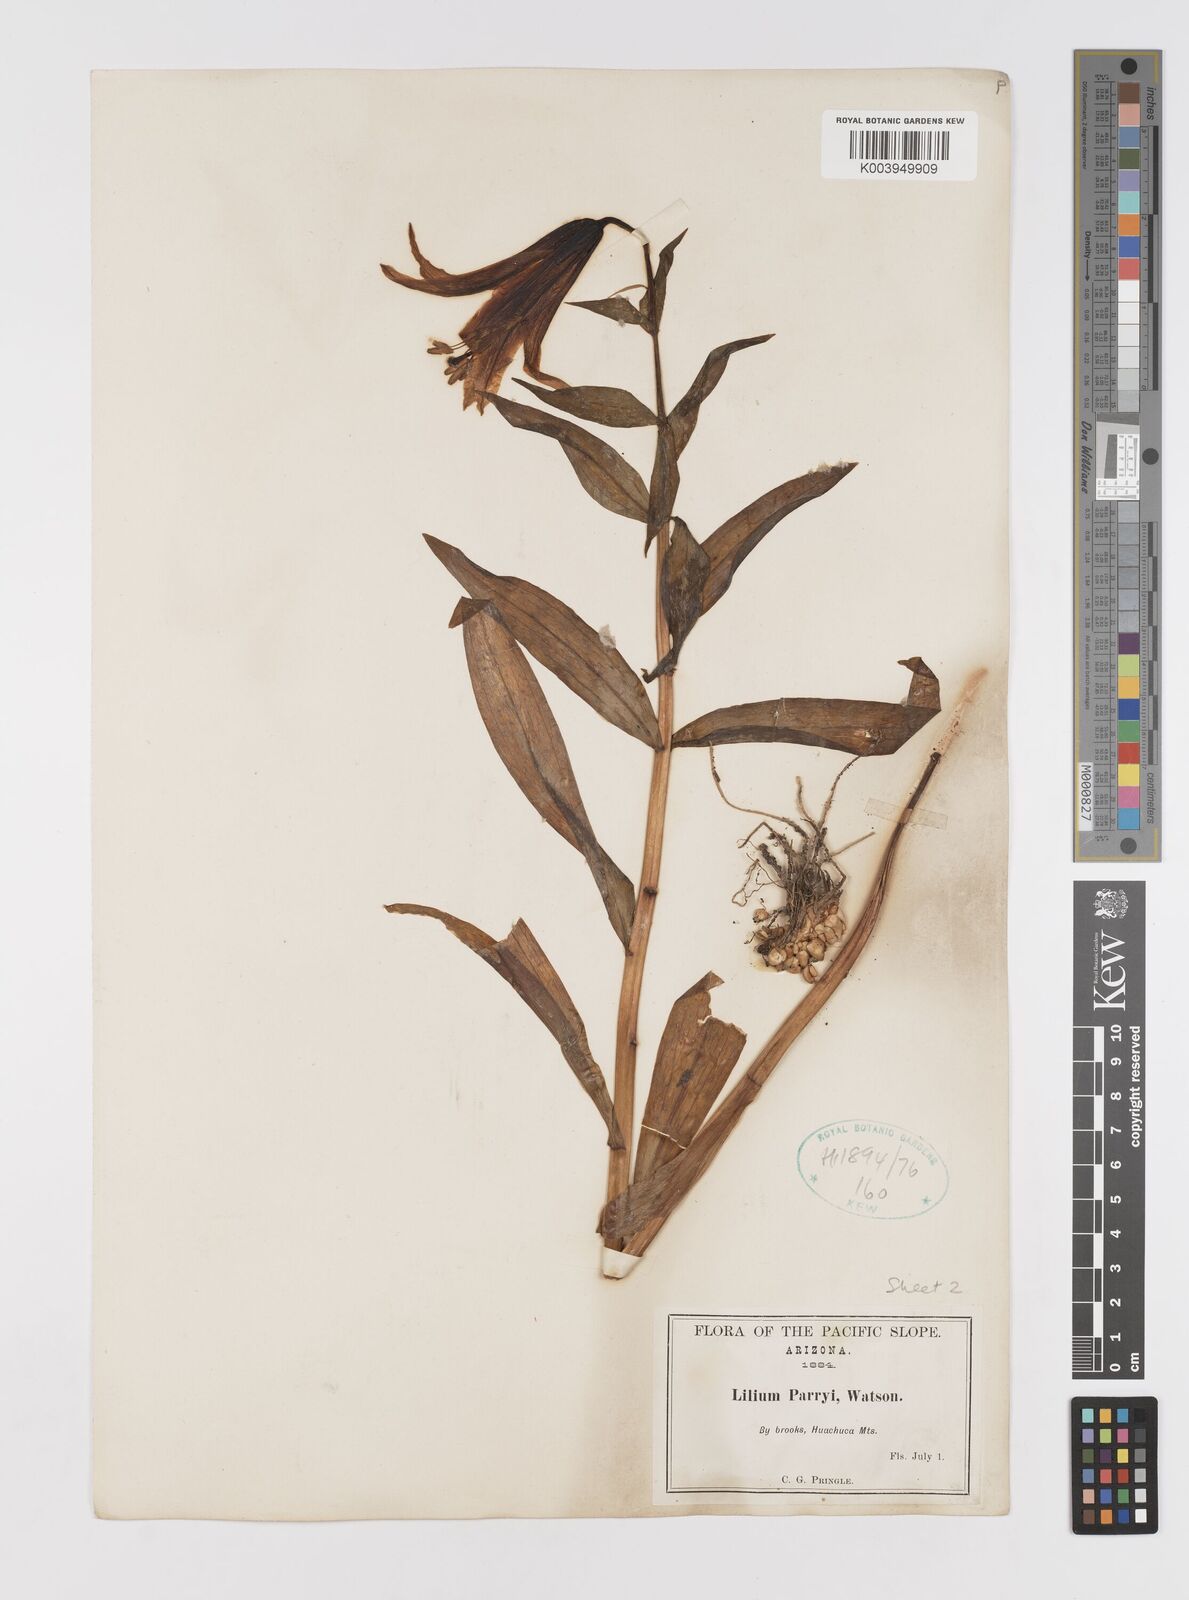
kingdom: Plantae
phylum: Tracheophyta
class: Liliopsida
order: Liliales
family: Liliaceae
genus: Lilium
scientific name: Lilium parryi
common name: Lemon lily
